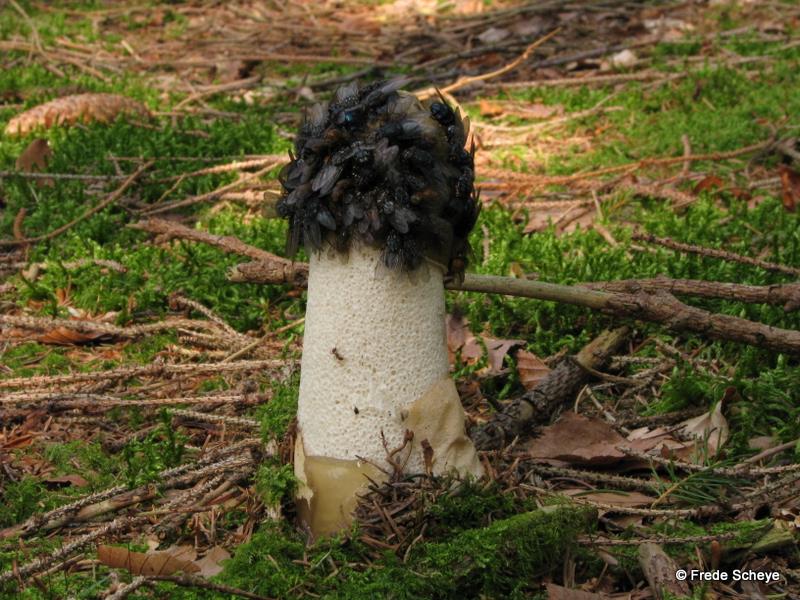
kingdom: Fungi
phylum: Basidiomycota
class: Agaricomycetes
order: Phallales
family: Phallaceae
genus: Phallus
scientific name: Phallus impudicus
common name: almindelig stinksvamp
